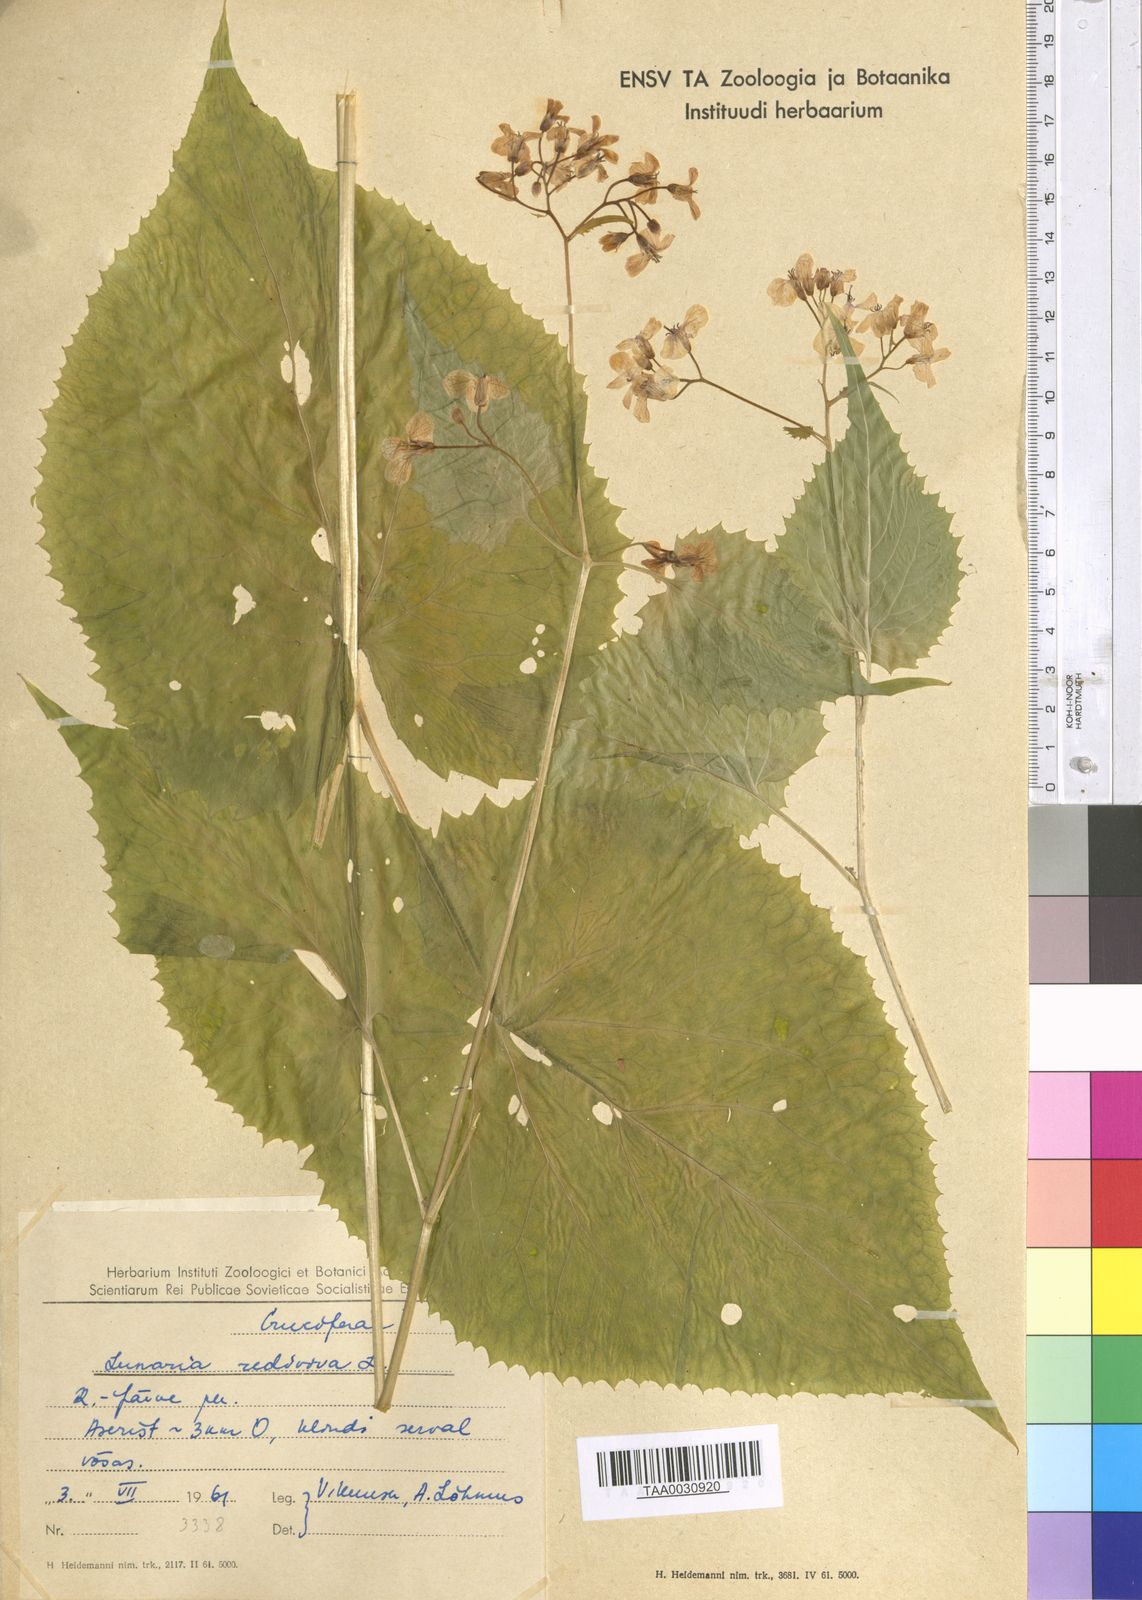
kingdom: Plantae
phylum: Tracheophyta
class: Magnoliopsida
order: Brassicales
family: Brassicaceae
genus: Lunaria
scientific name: Lunaria rediviva
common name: Perennial honesty
